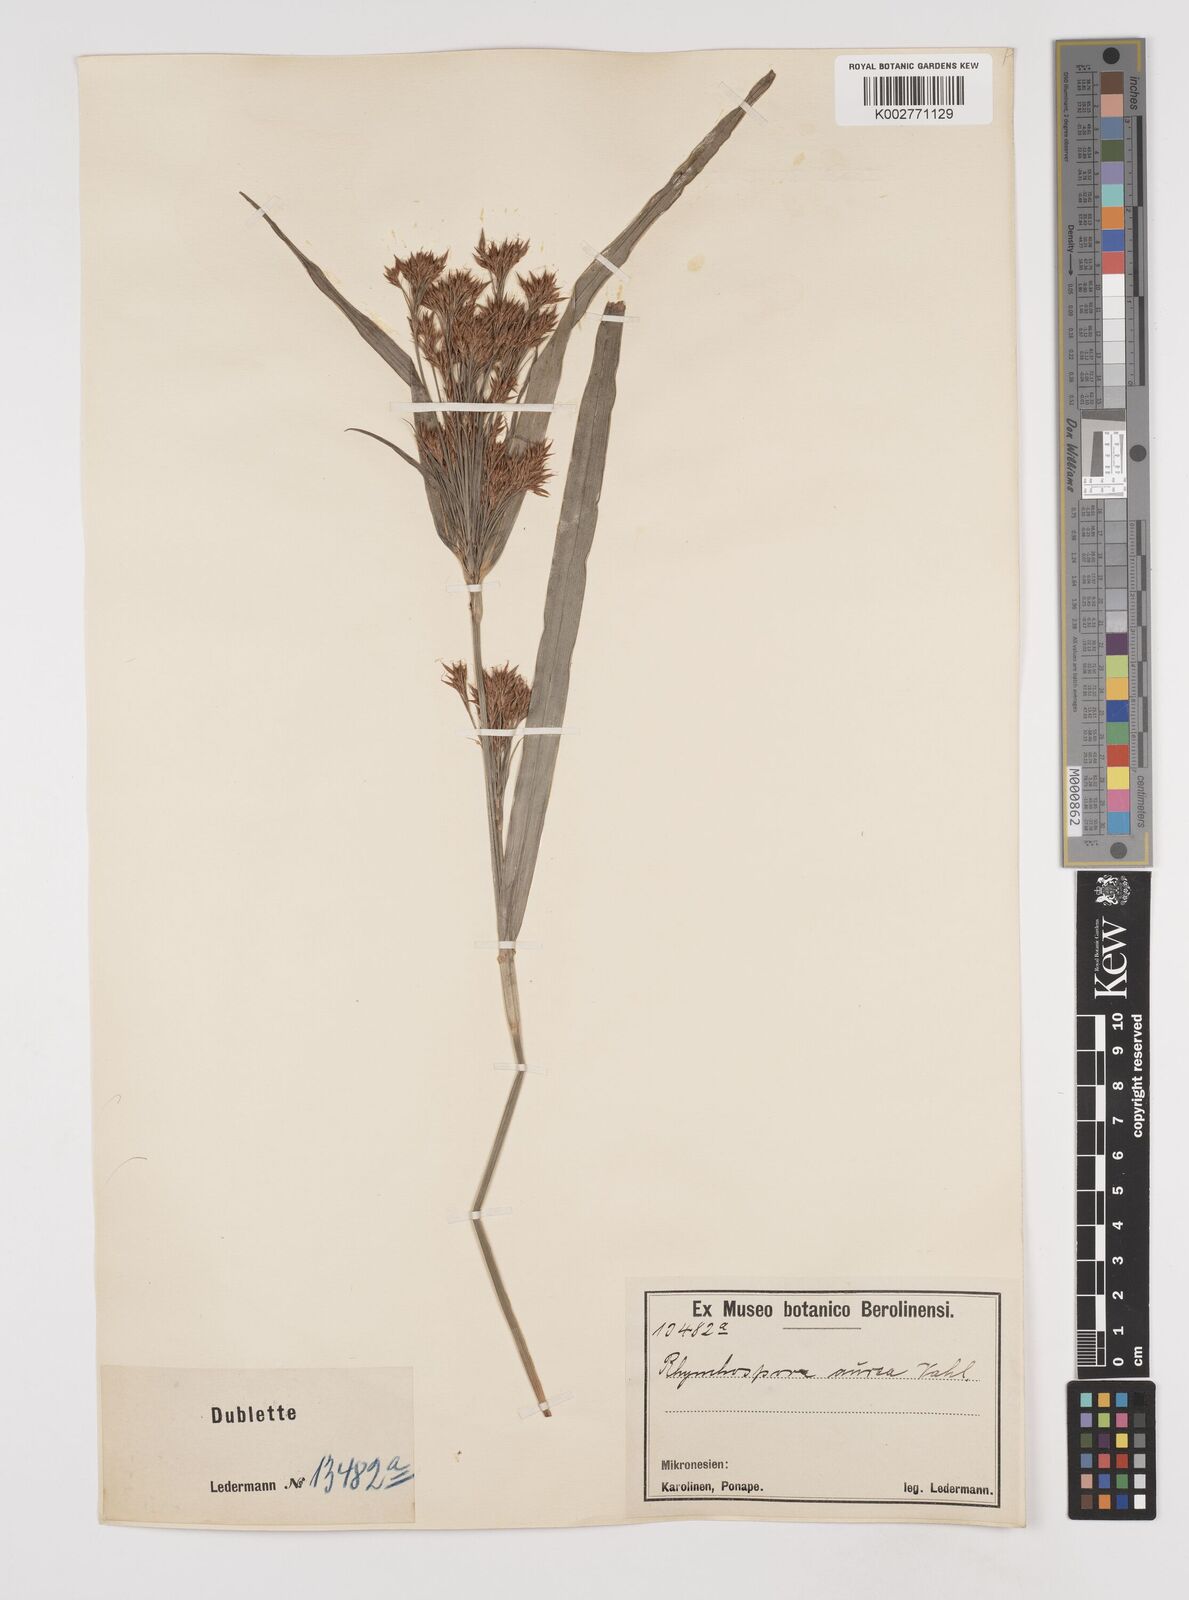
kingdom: Plantae
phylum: Tracheophyta
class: Liliopsida
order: Poales
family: Cyperaceae
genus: Rhynchospora
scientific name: Rhynchospora corymbosa
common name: Golden beak sedge
